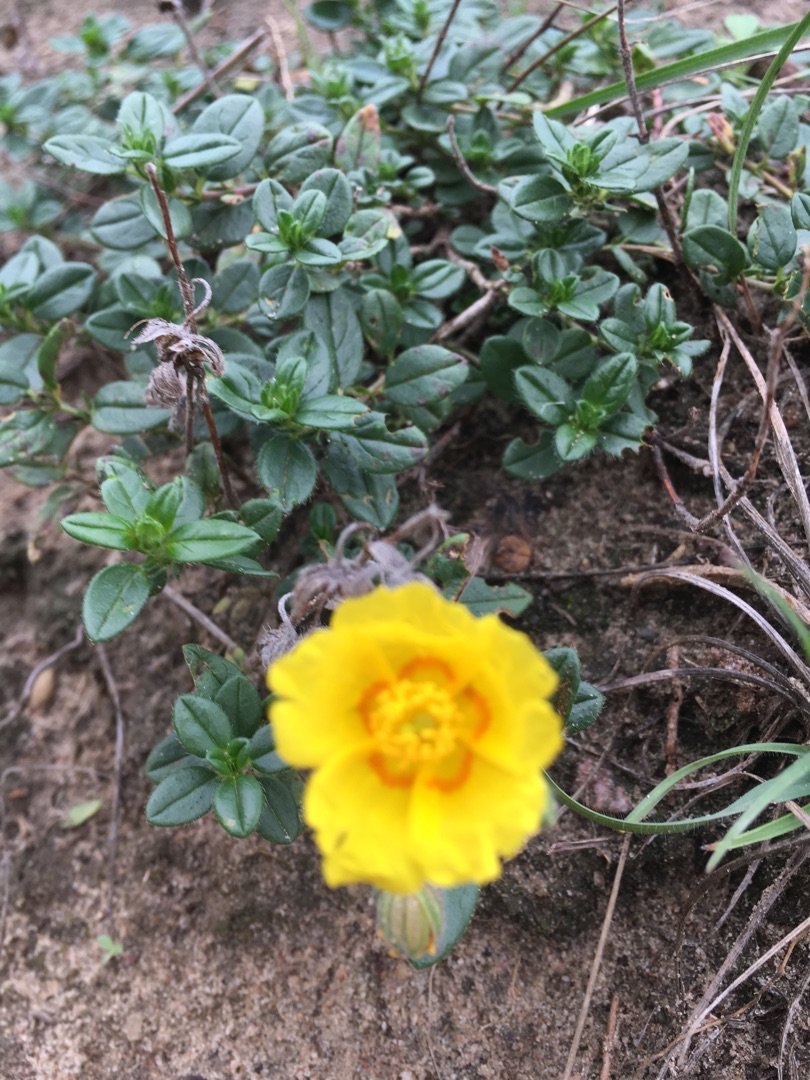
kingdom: Plantae
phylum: Tracheophyta
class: Magnoliopsida
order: Malvales
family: Cistaceae
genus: Helianthemum
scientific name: Helianthemum nummularium
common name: Soløje
